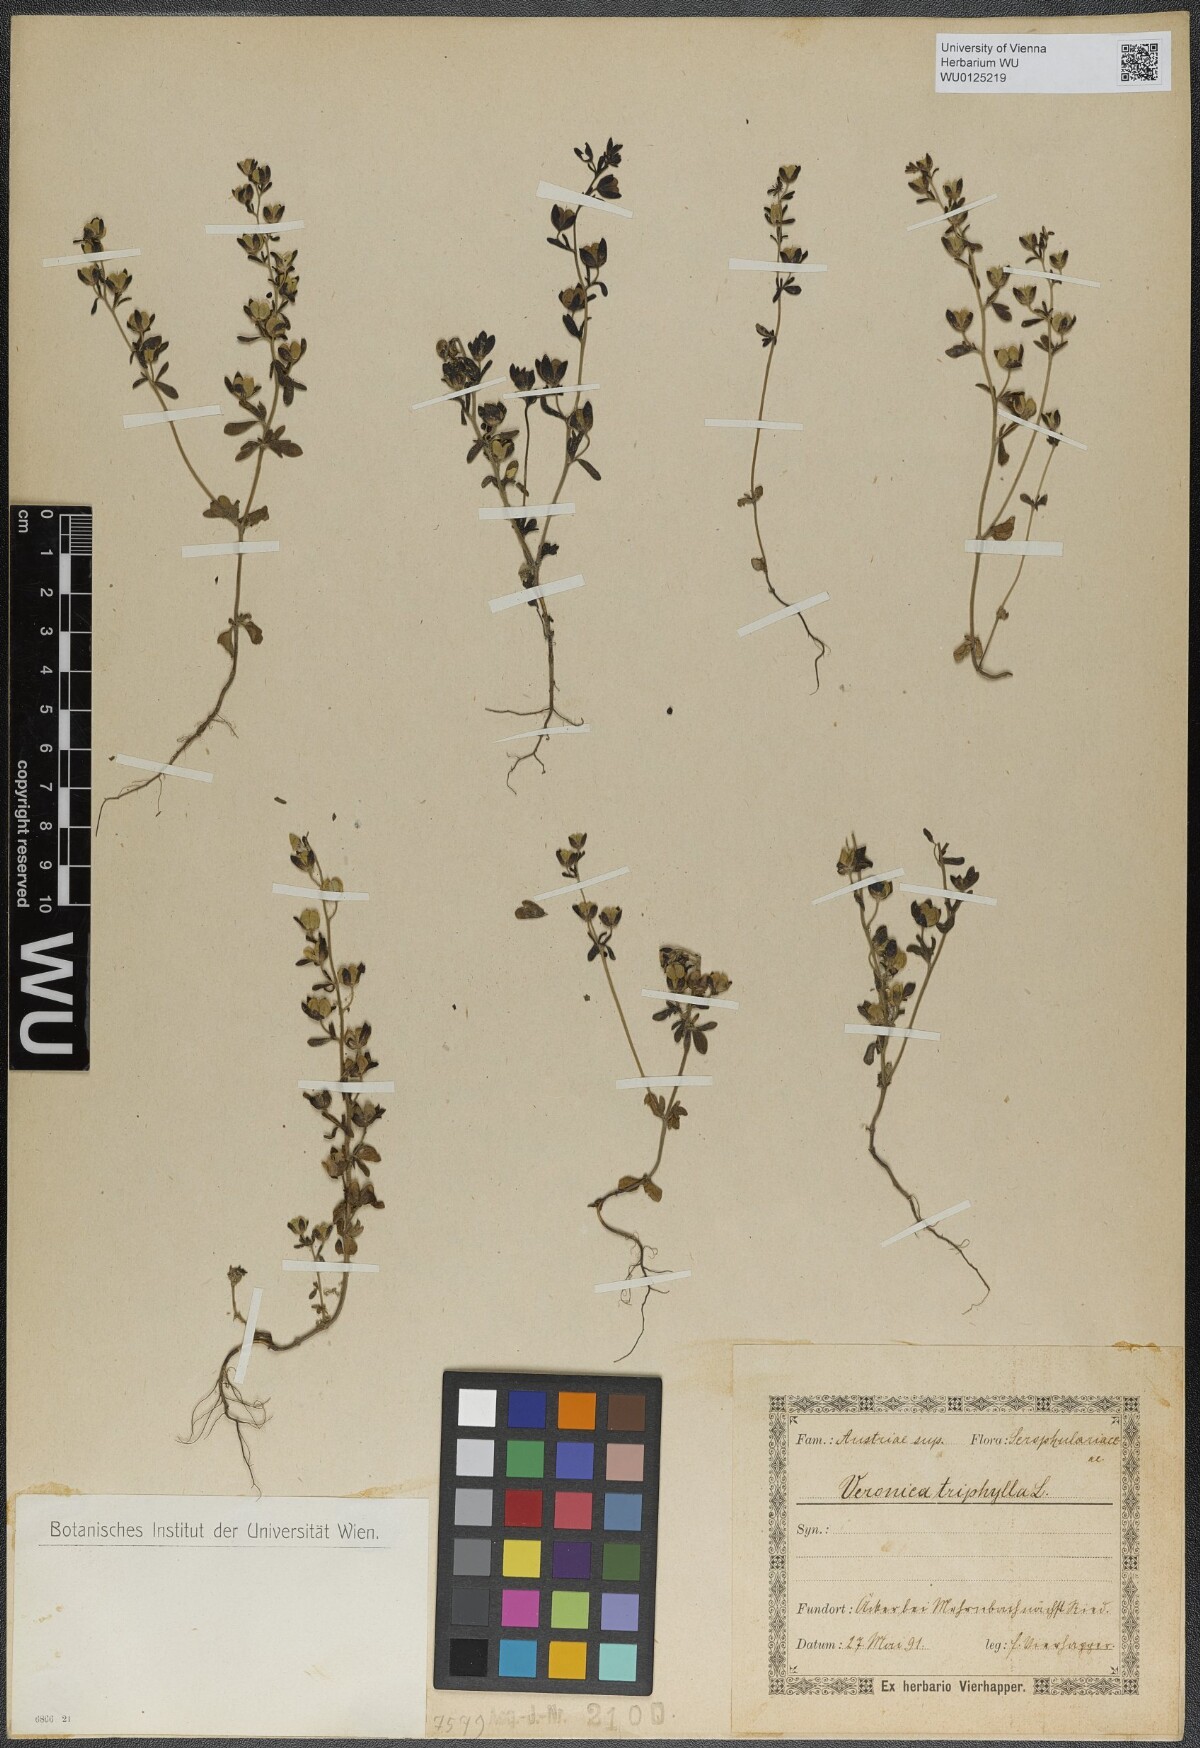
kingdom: Plantae
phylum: Tracheophyta
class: Magnoliopsida
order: Lamiales
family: Plantaginaceae
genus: Veronica
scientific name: Veronica triphyllos
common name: Fingered speedwell
